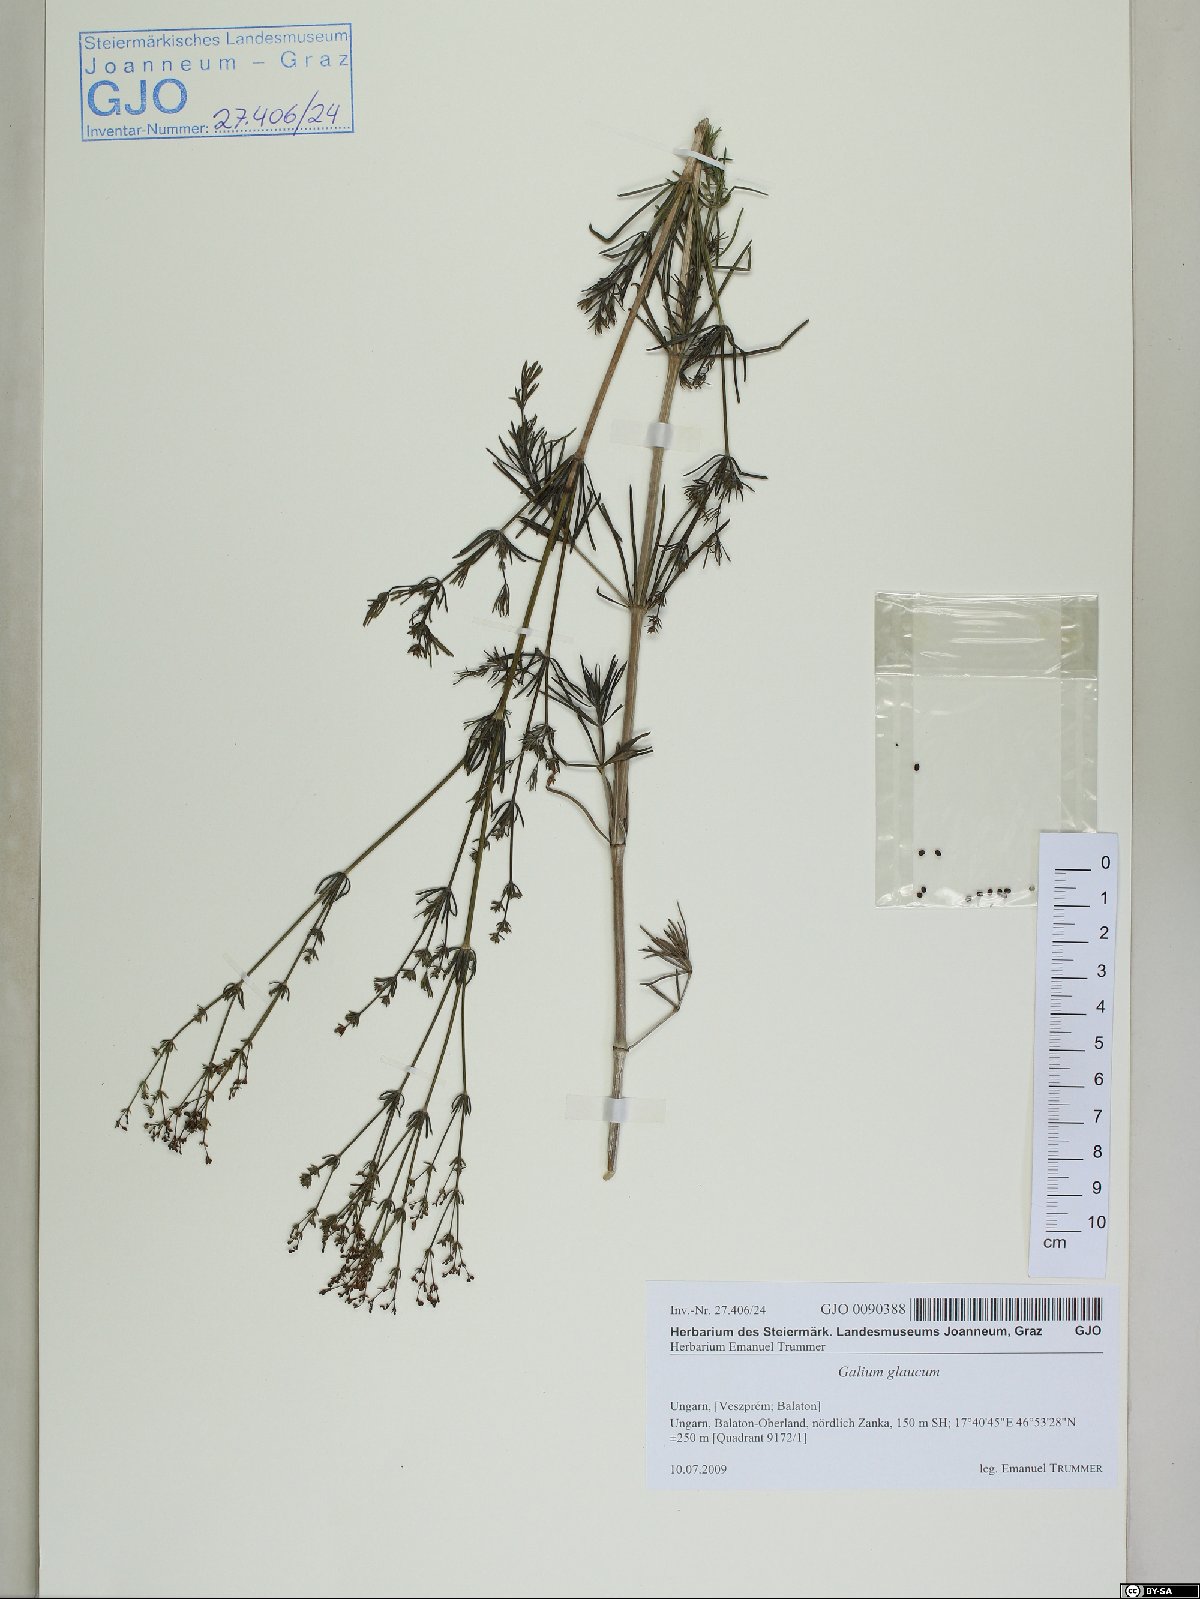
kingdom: Plantae
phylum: Tracheophyta
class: Magnoliopsida
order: Gentianales
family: Rubiaceae
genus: Galium
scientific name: Galium glaucum
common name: Waxy bedstraw
